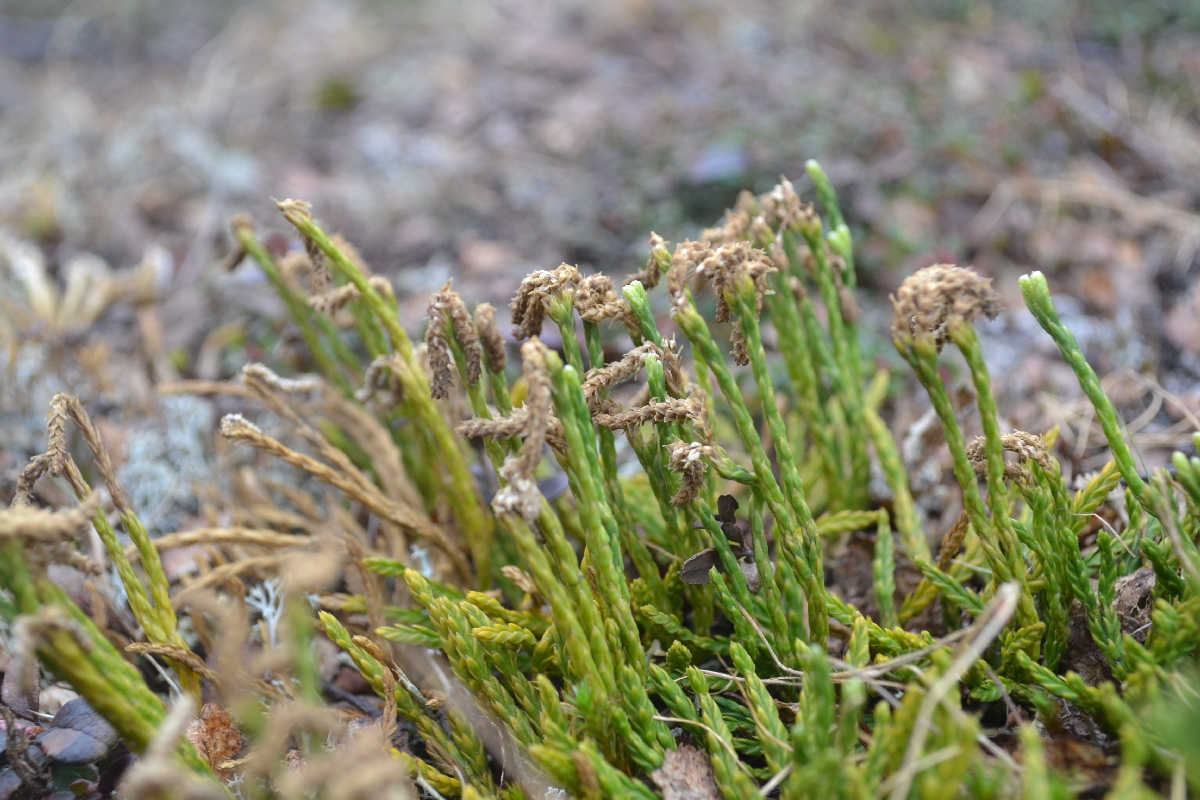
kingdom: Plantae
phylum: Tracheophyta
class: Lycopodiopsida
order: Lycopodiales
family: Lycopodiaceae
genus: Diphasiastrum
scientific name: Diphasiastrum alpinum
